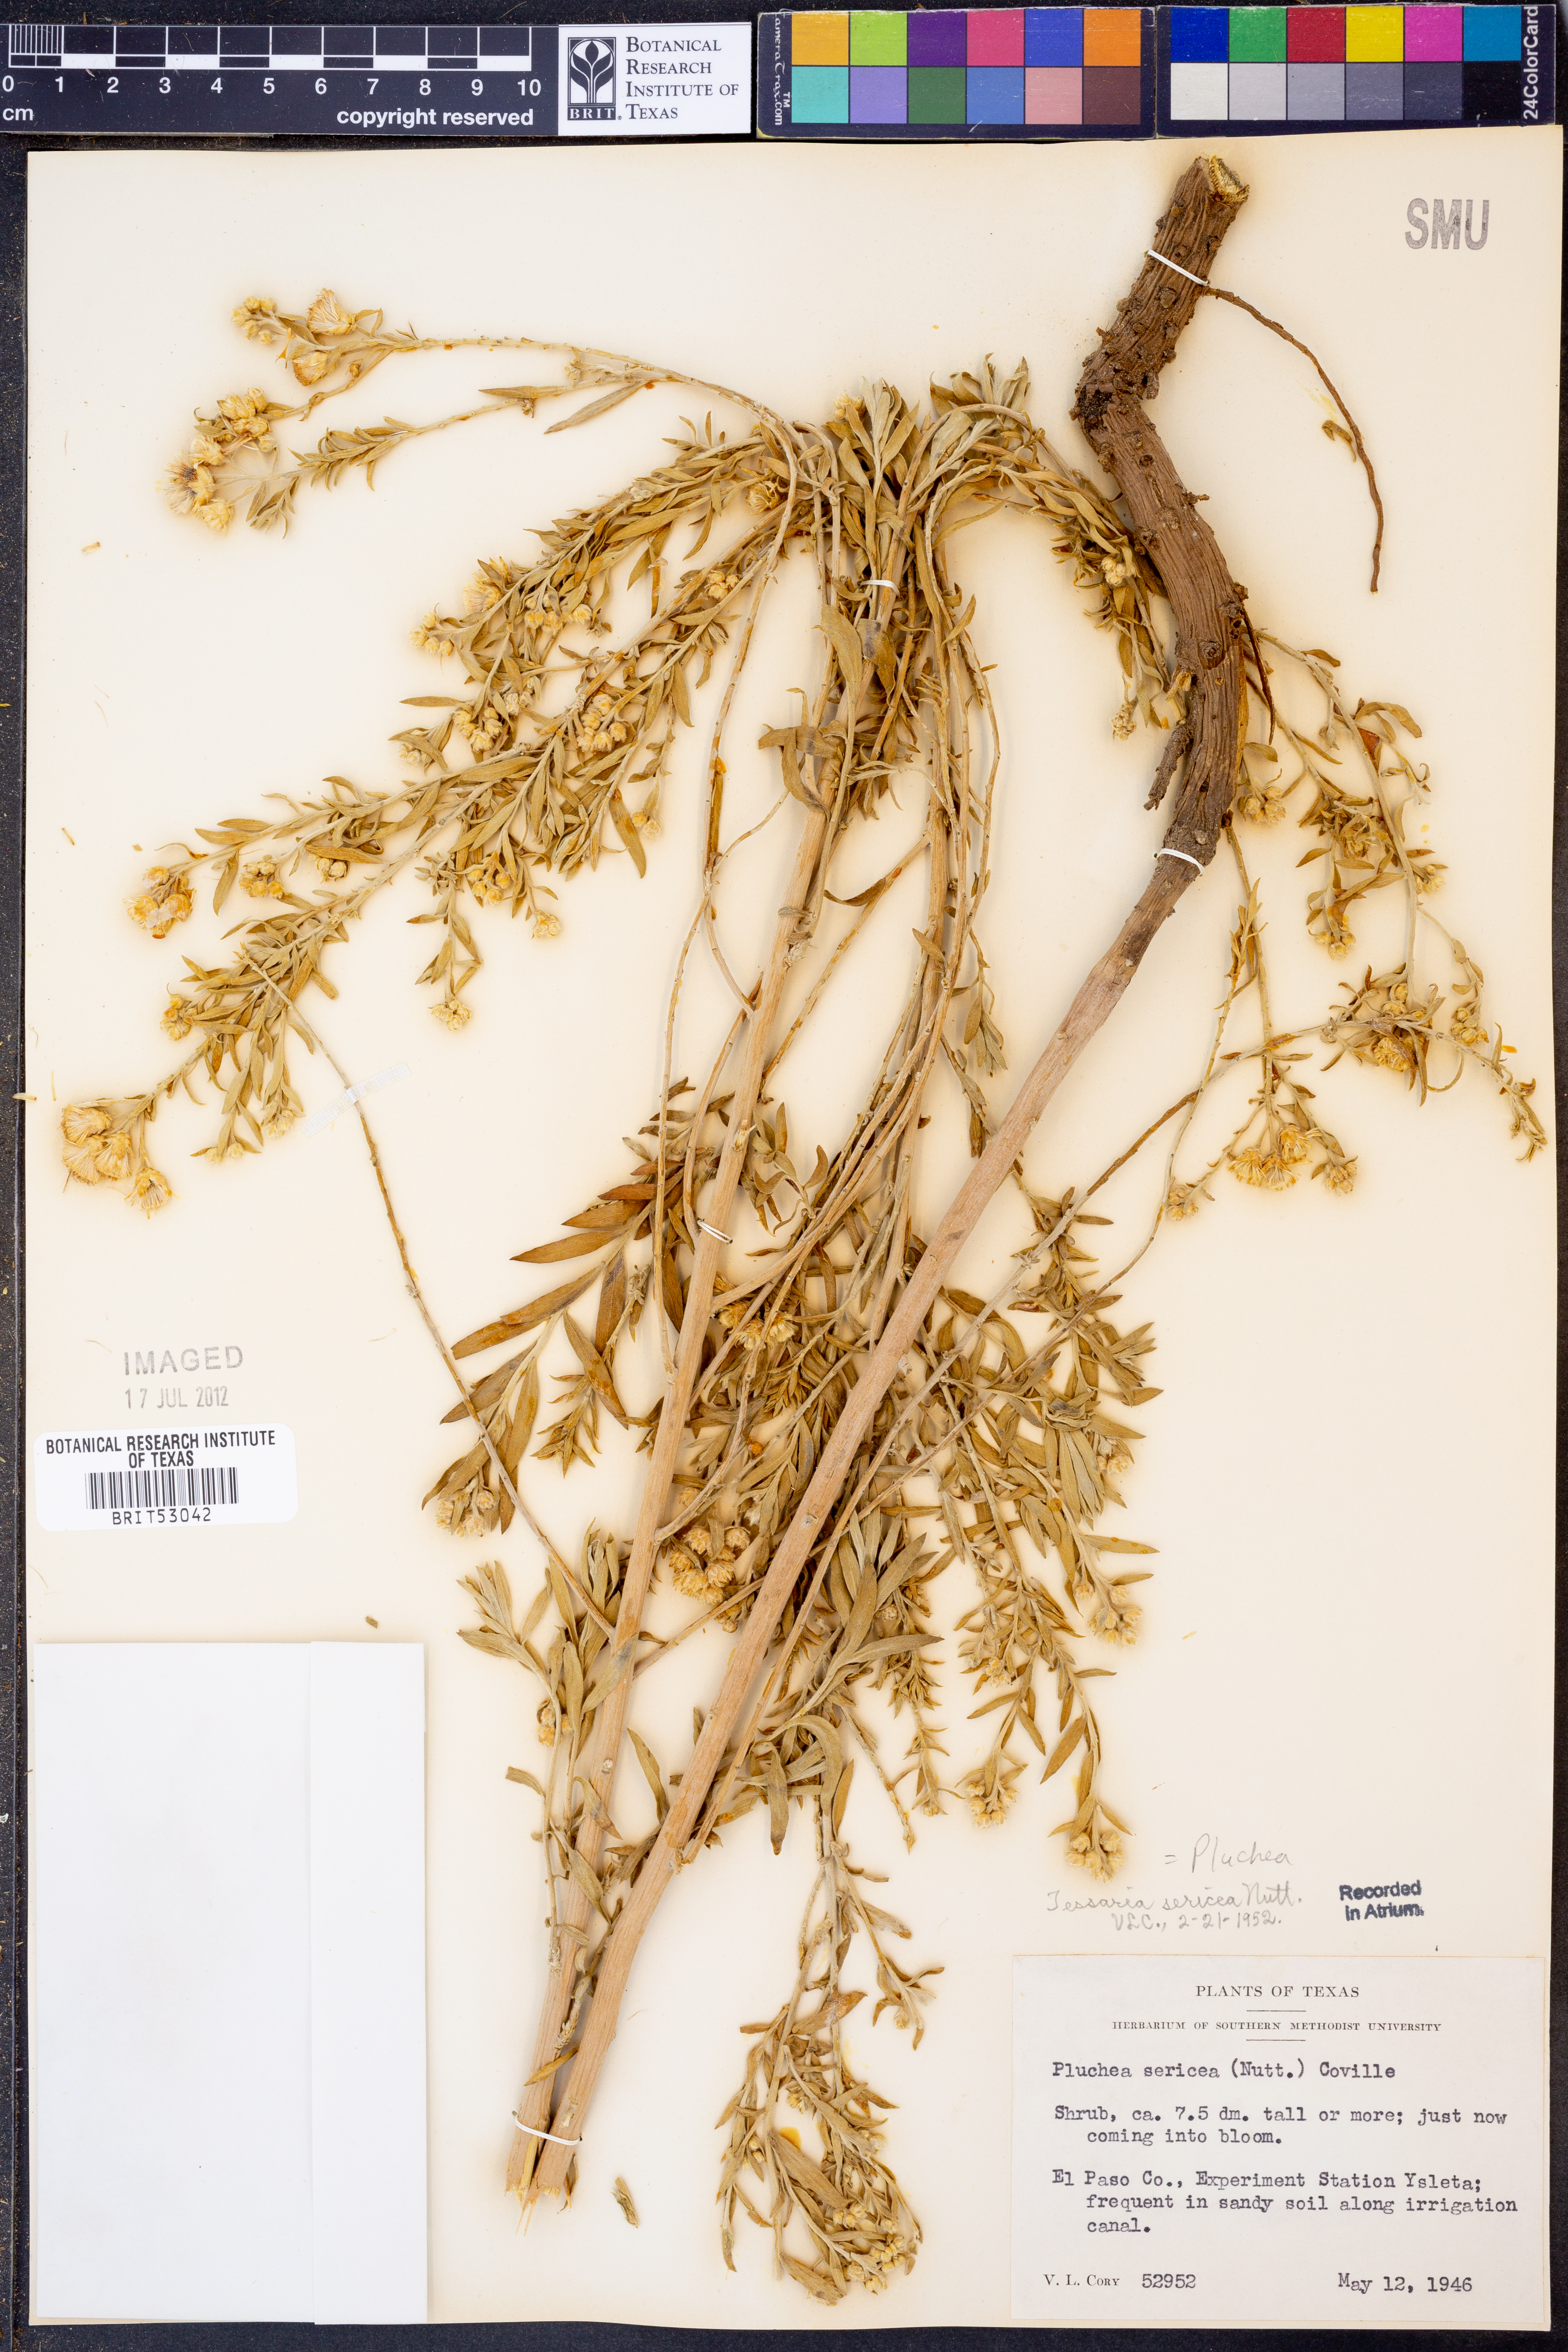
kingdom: Plantae
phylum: Tracheophyta
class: Magnoliopsida
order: Asterales
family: Asteraceae
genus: Pluchea
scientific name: Pluchea sericea
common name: Arrow-weed
